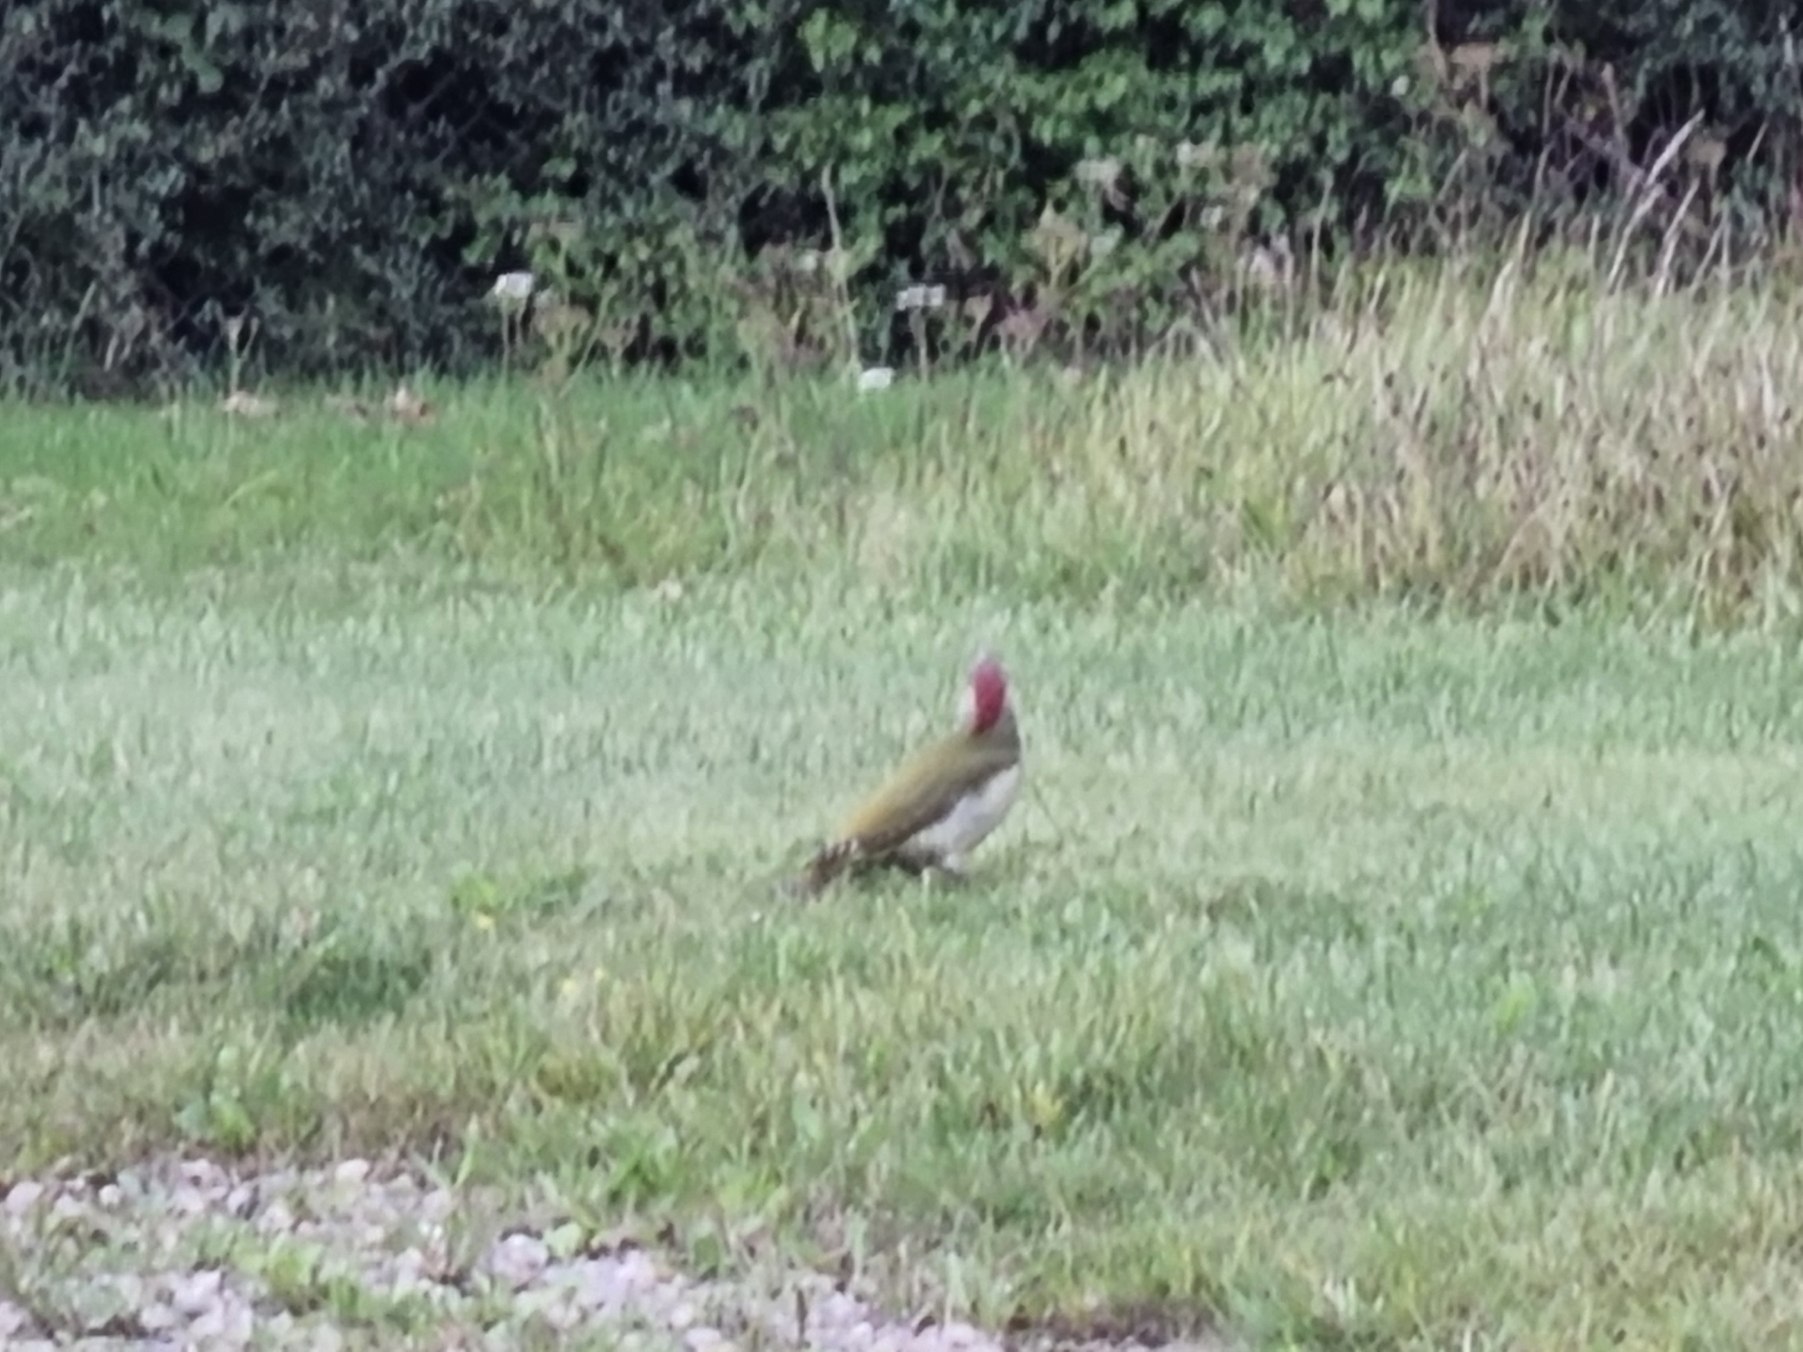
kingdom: Animalia
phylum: Chordata
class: Aves
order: Piciformes
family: Picidae
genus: Picus
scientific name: Picus viridis
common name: Grønspætte
